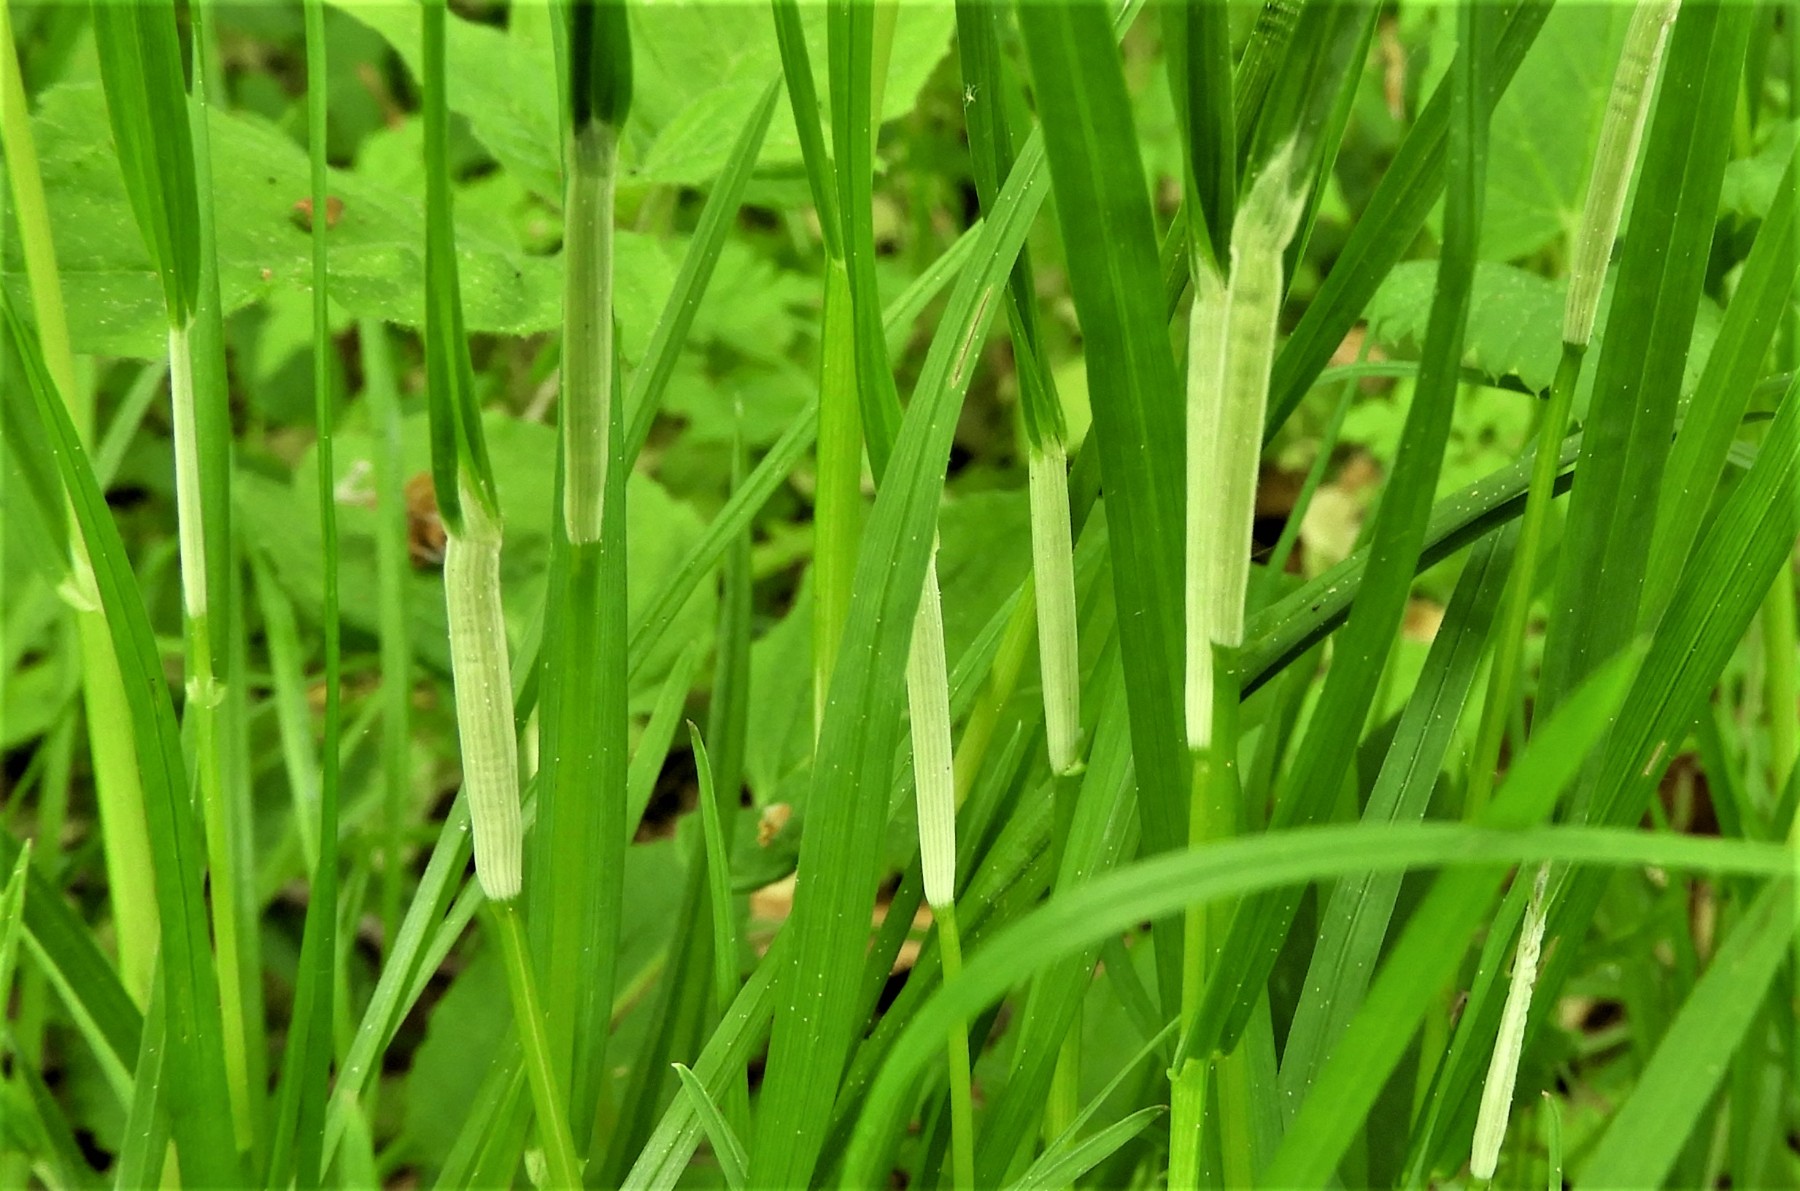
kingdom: Fungi
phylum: Ascomycota
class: Sordariomycetes
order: Hypocreales
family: Clavicipitaceae
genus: Epichloe
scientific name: Epichloe typhina
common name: almindelig kernerør
